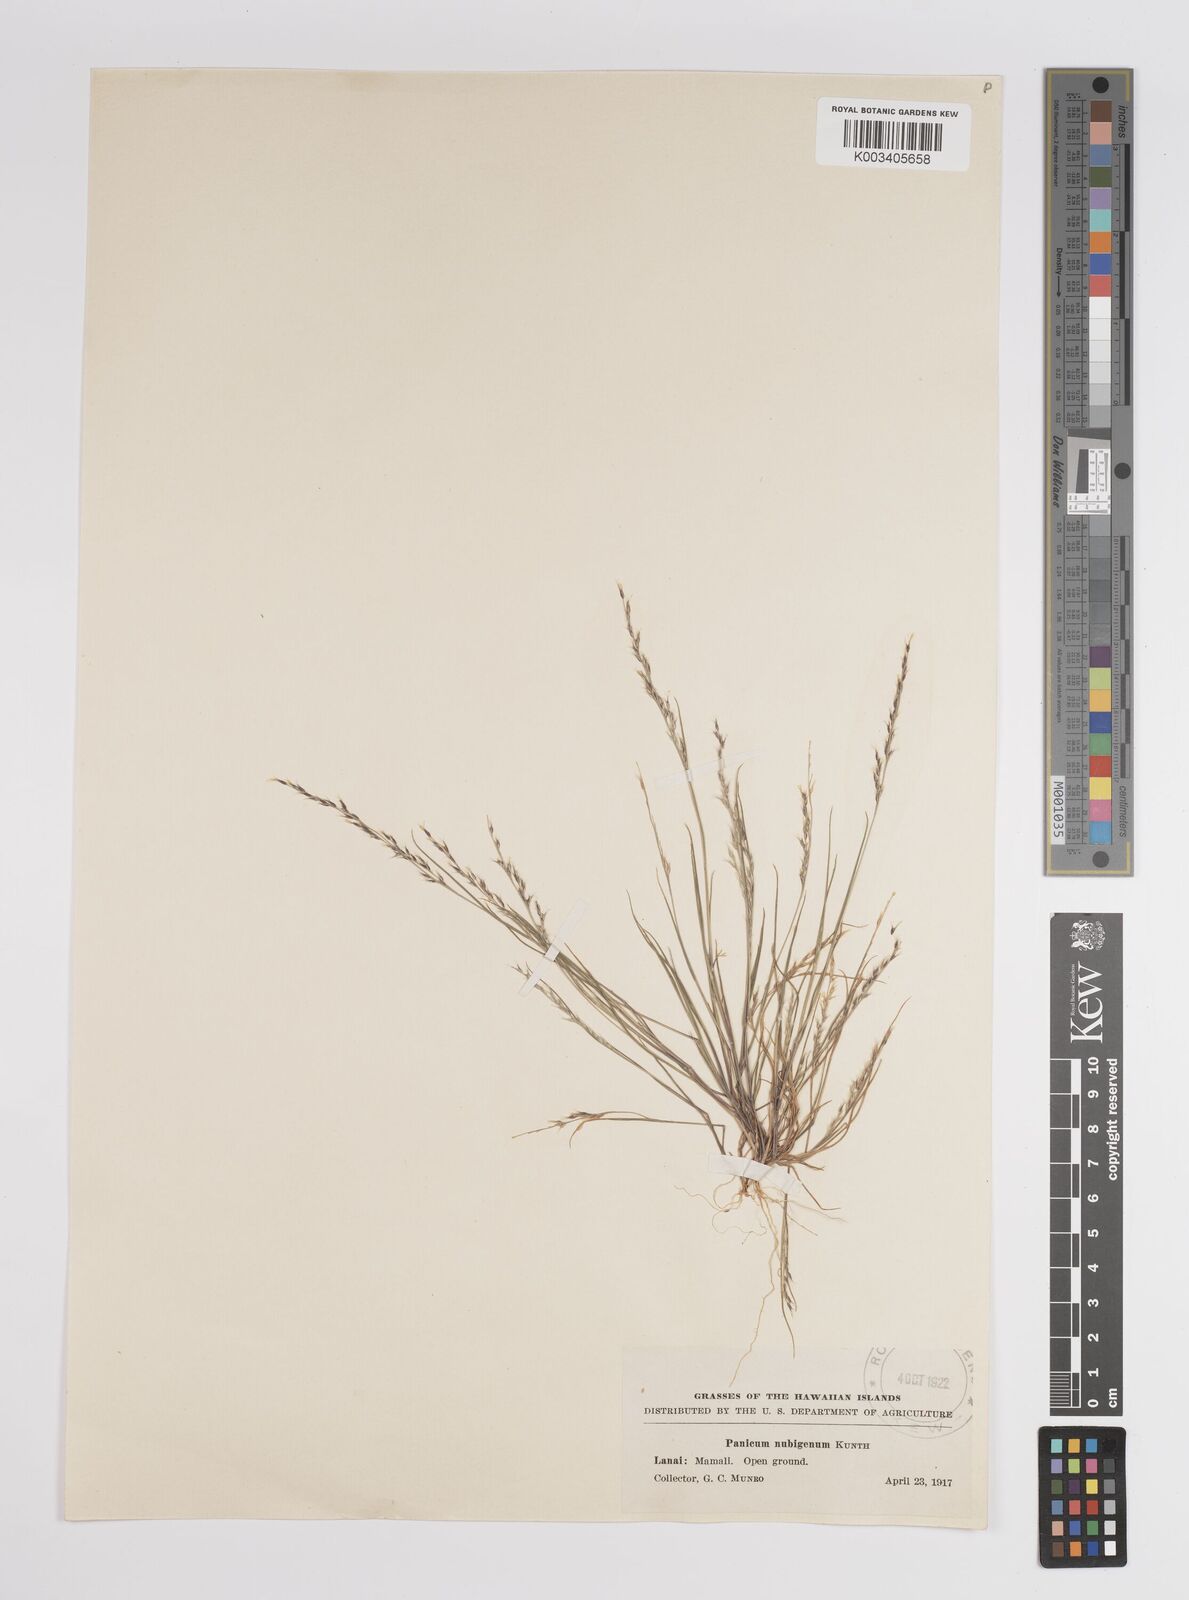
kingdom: Plantae
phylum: Tracheophyta
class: Liliopsida
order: Poales
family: Poaceae
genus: Panicum
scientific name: Panicum fauriei
